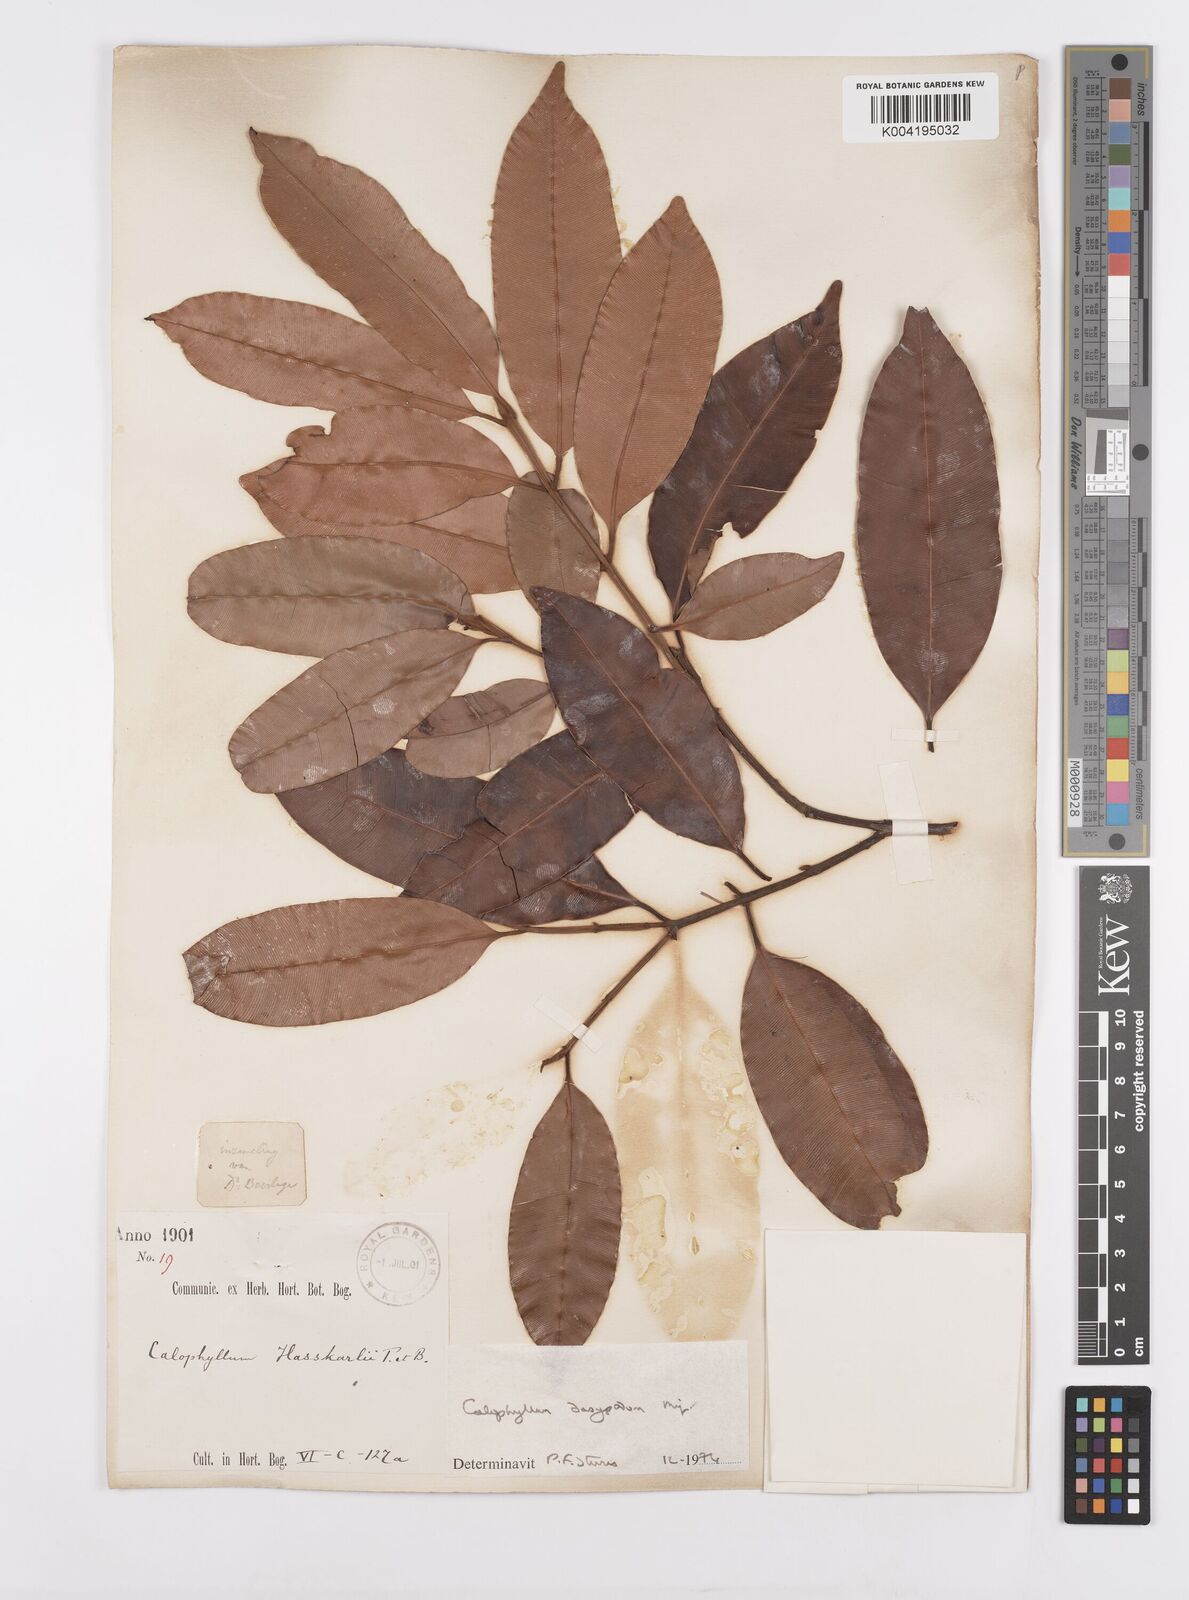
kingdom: Plantae
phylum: Tracheophyta
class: Magnoliopsida
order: Malpighiales
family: Calophyllaceae
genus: Calophyllum
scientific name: Calophyllum dasypodium
